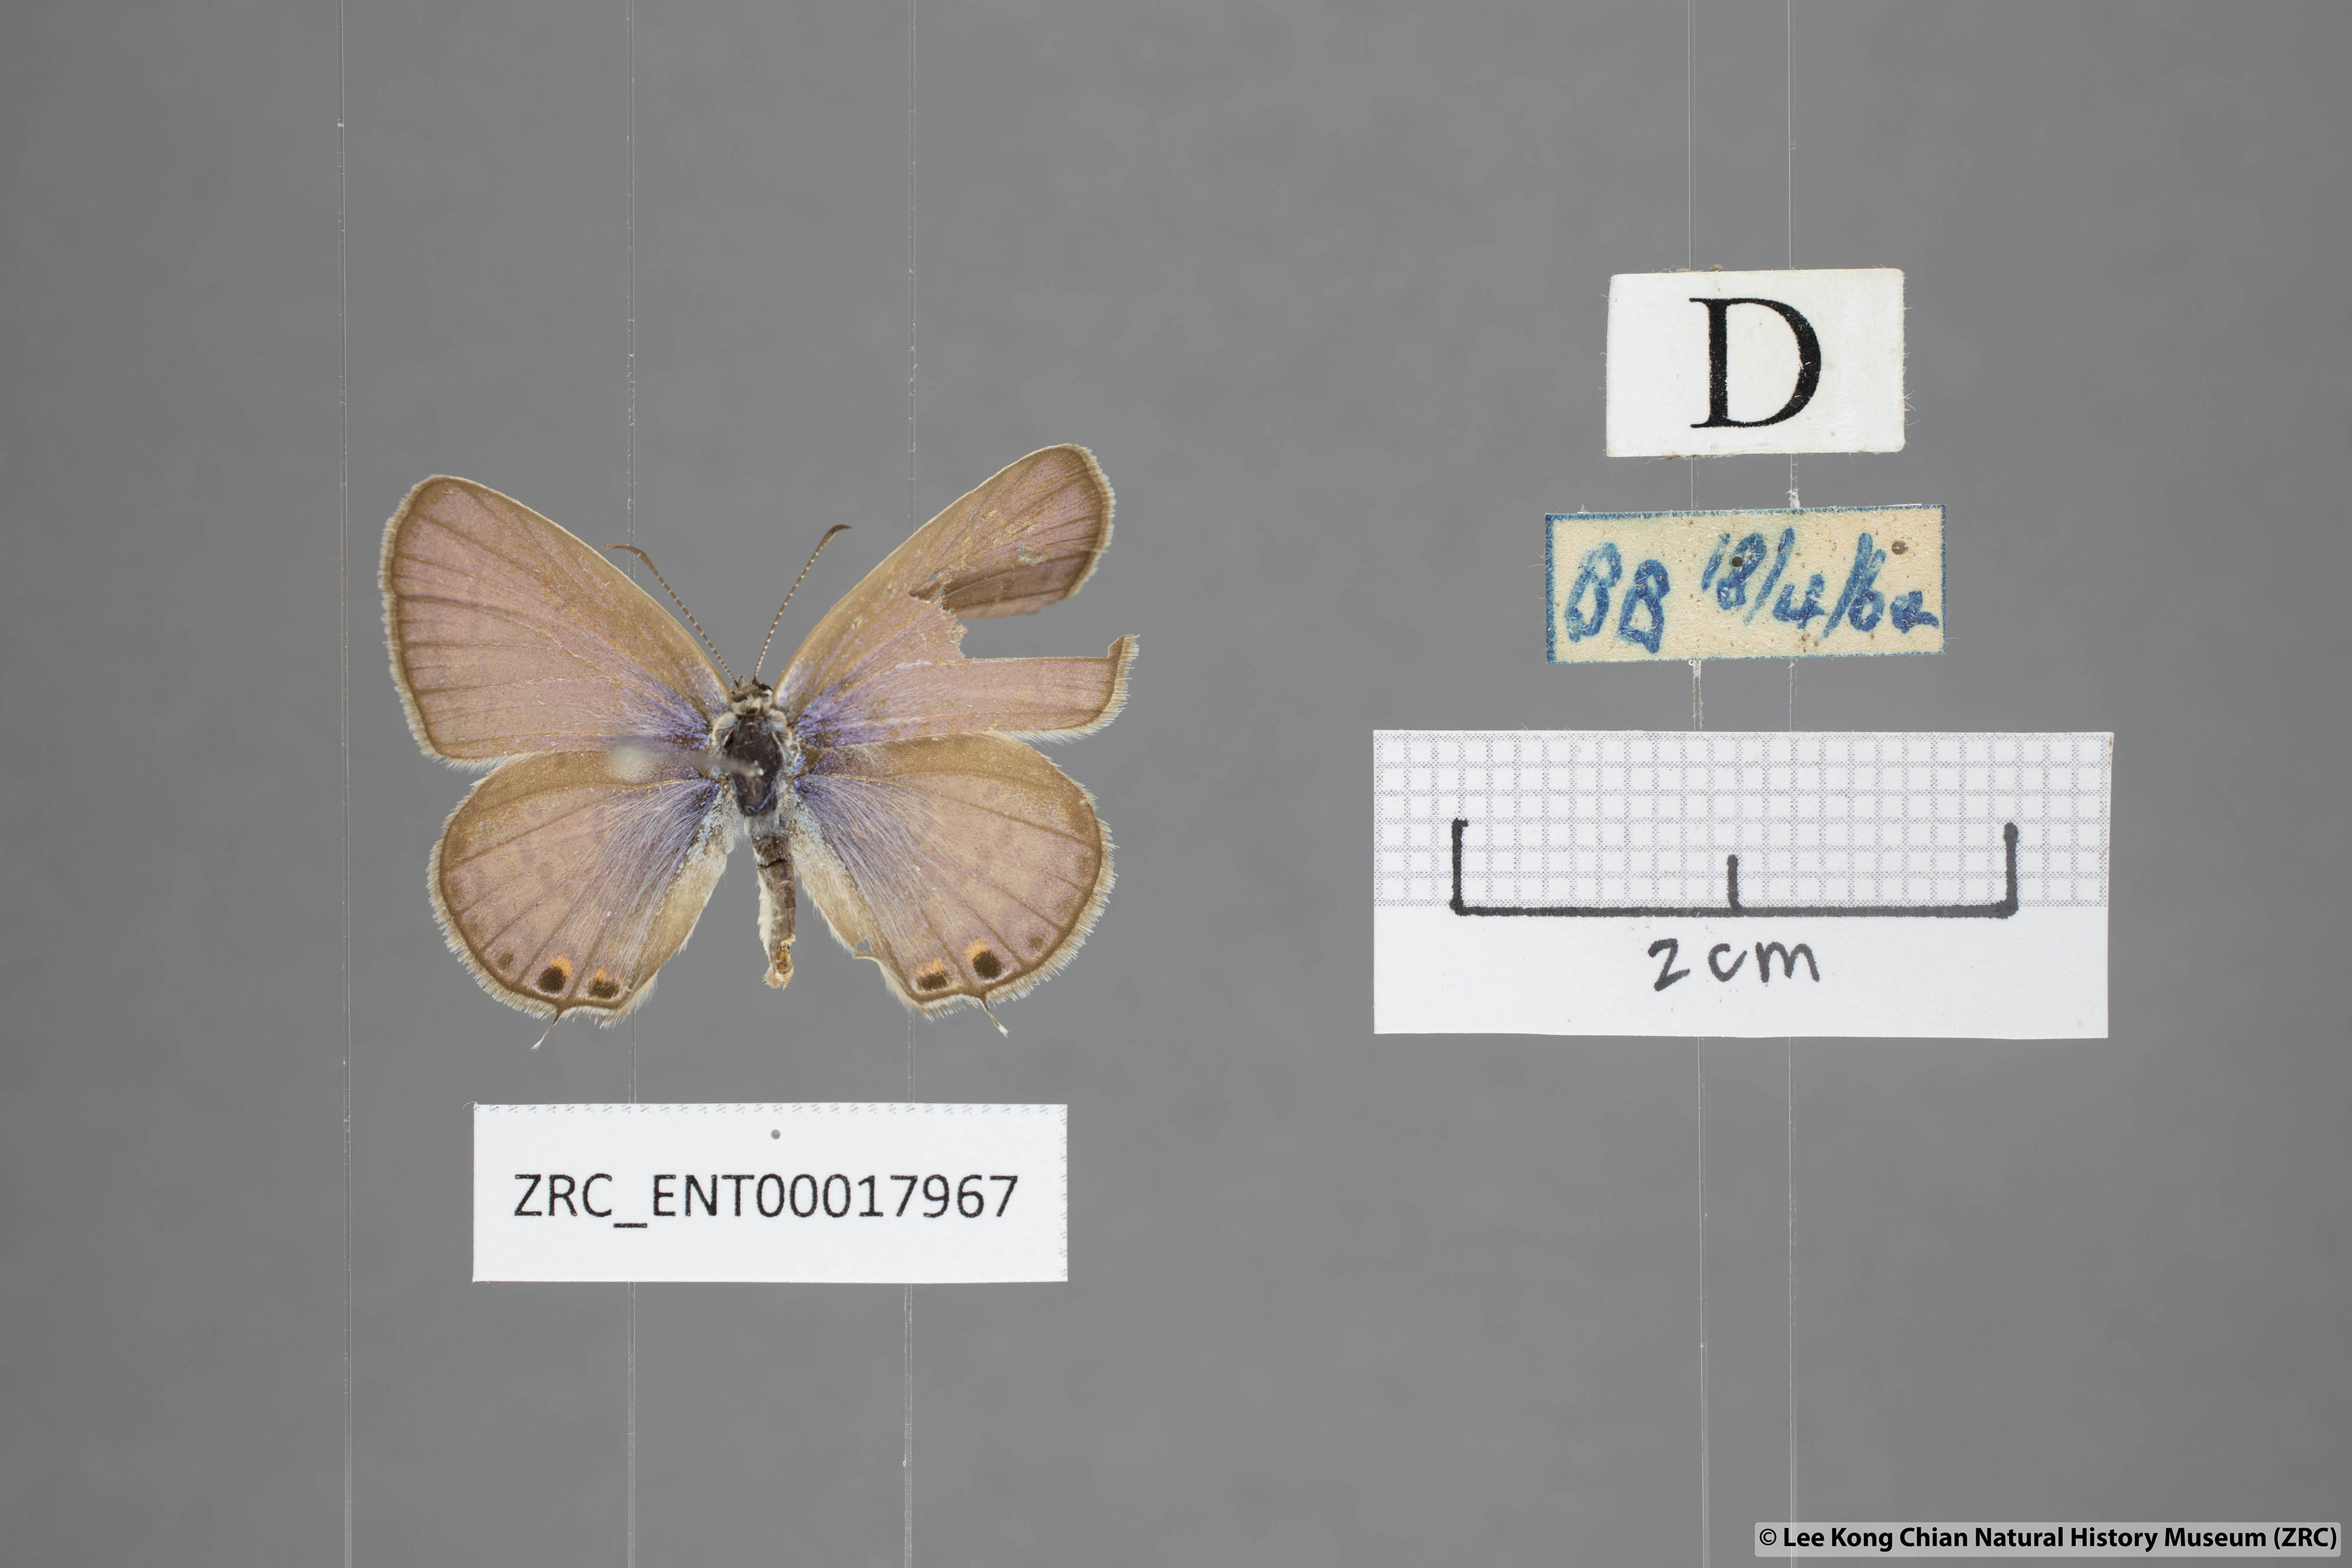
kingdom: Animalia
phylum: Arthropoda
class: Insecta
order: Lepidoptera
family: Lycaenidae
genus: Euchrysops
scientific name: Euchrysops cnejus
